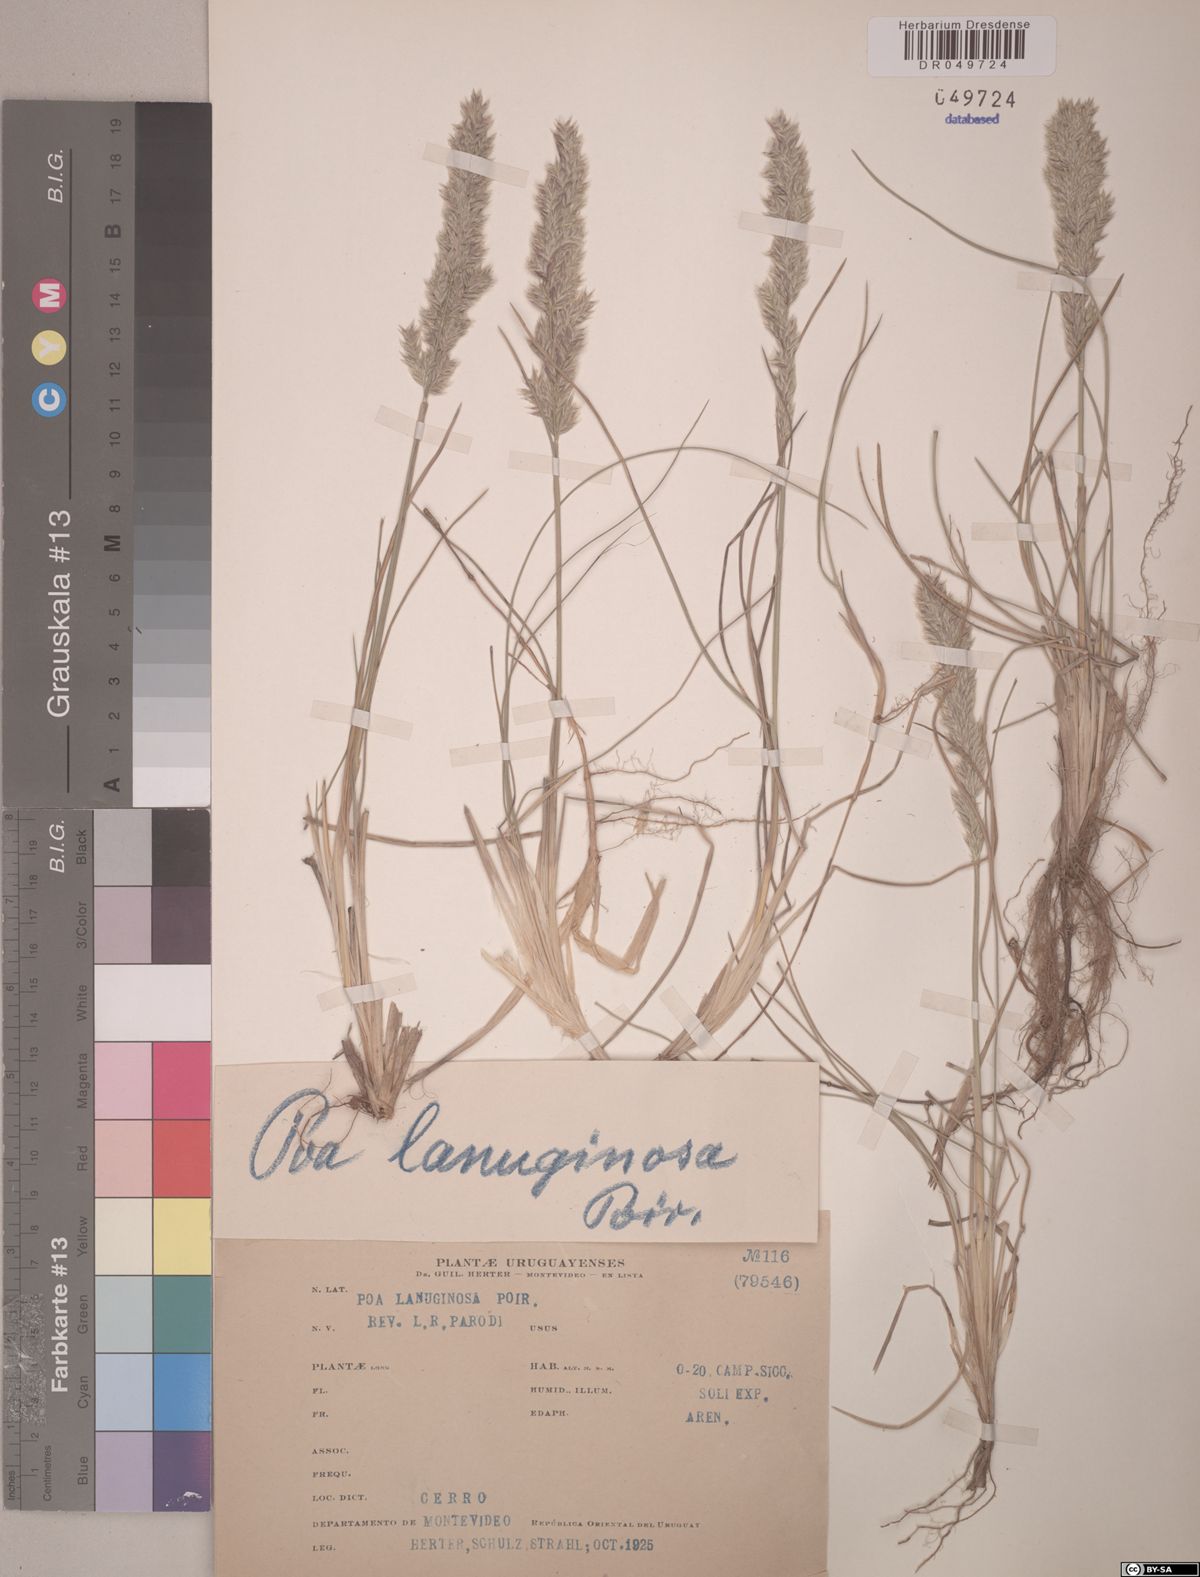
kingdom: Plantae
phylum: Tracheophyta
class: Liliopsida
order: Poales
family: Poaceae
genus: Poa
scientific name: Poa lanuginosa
